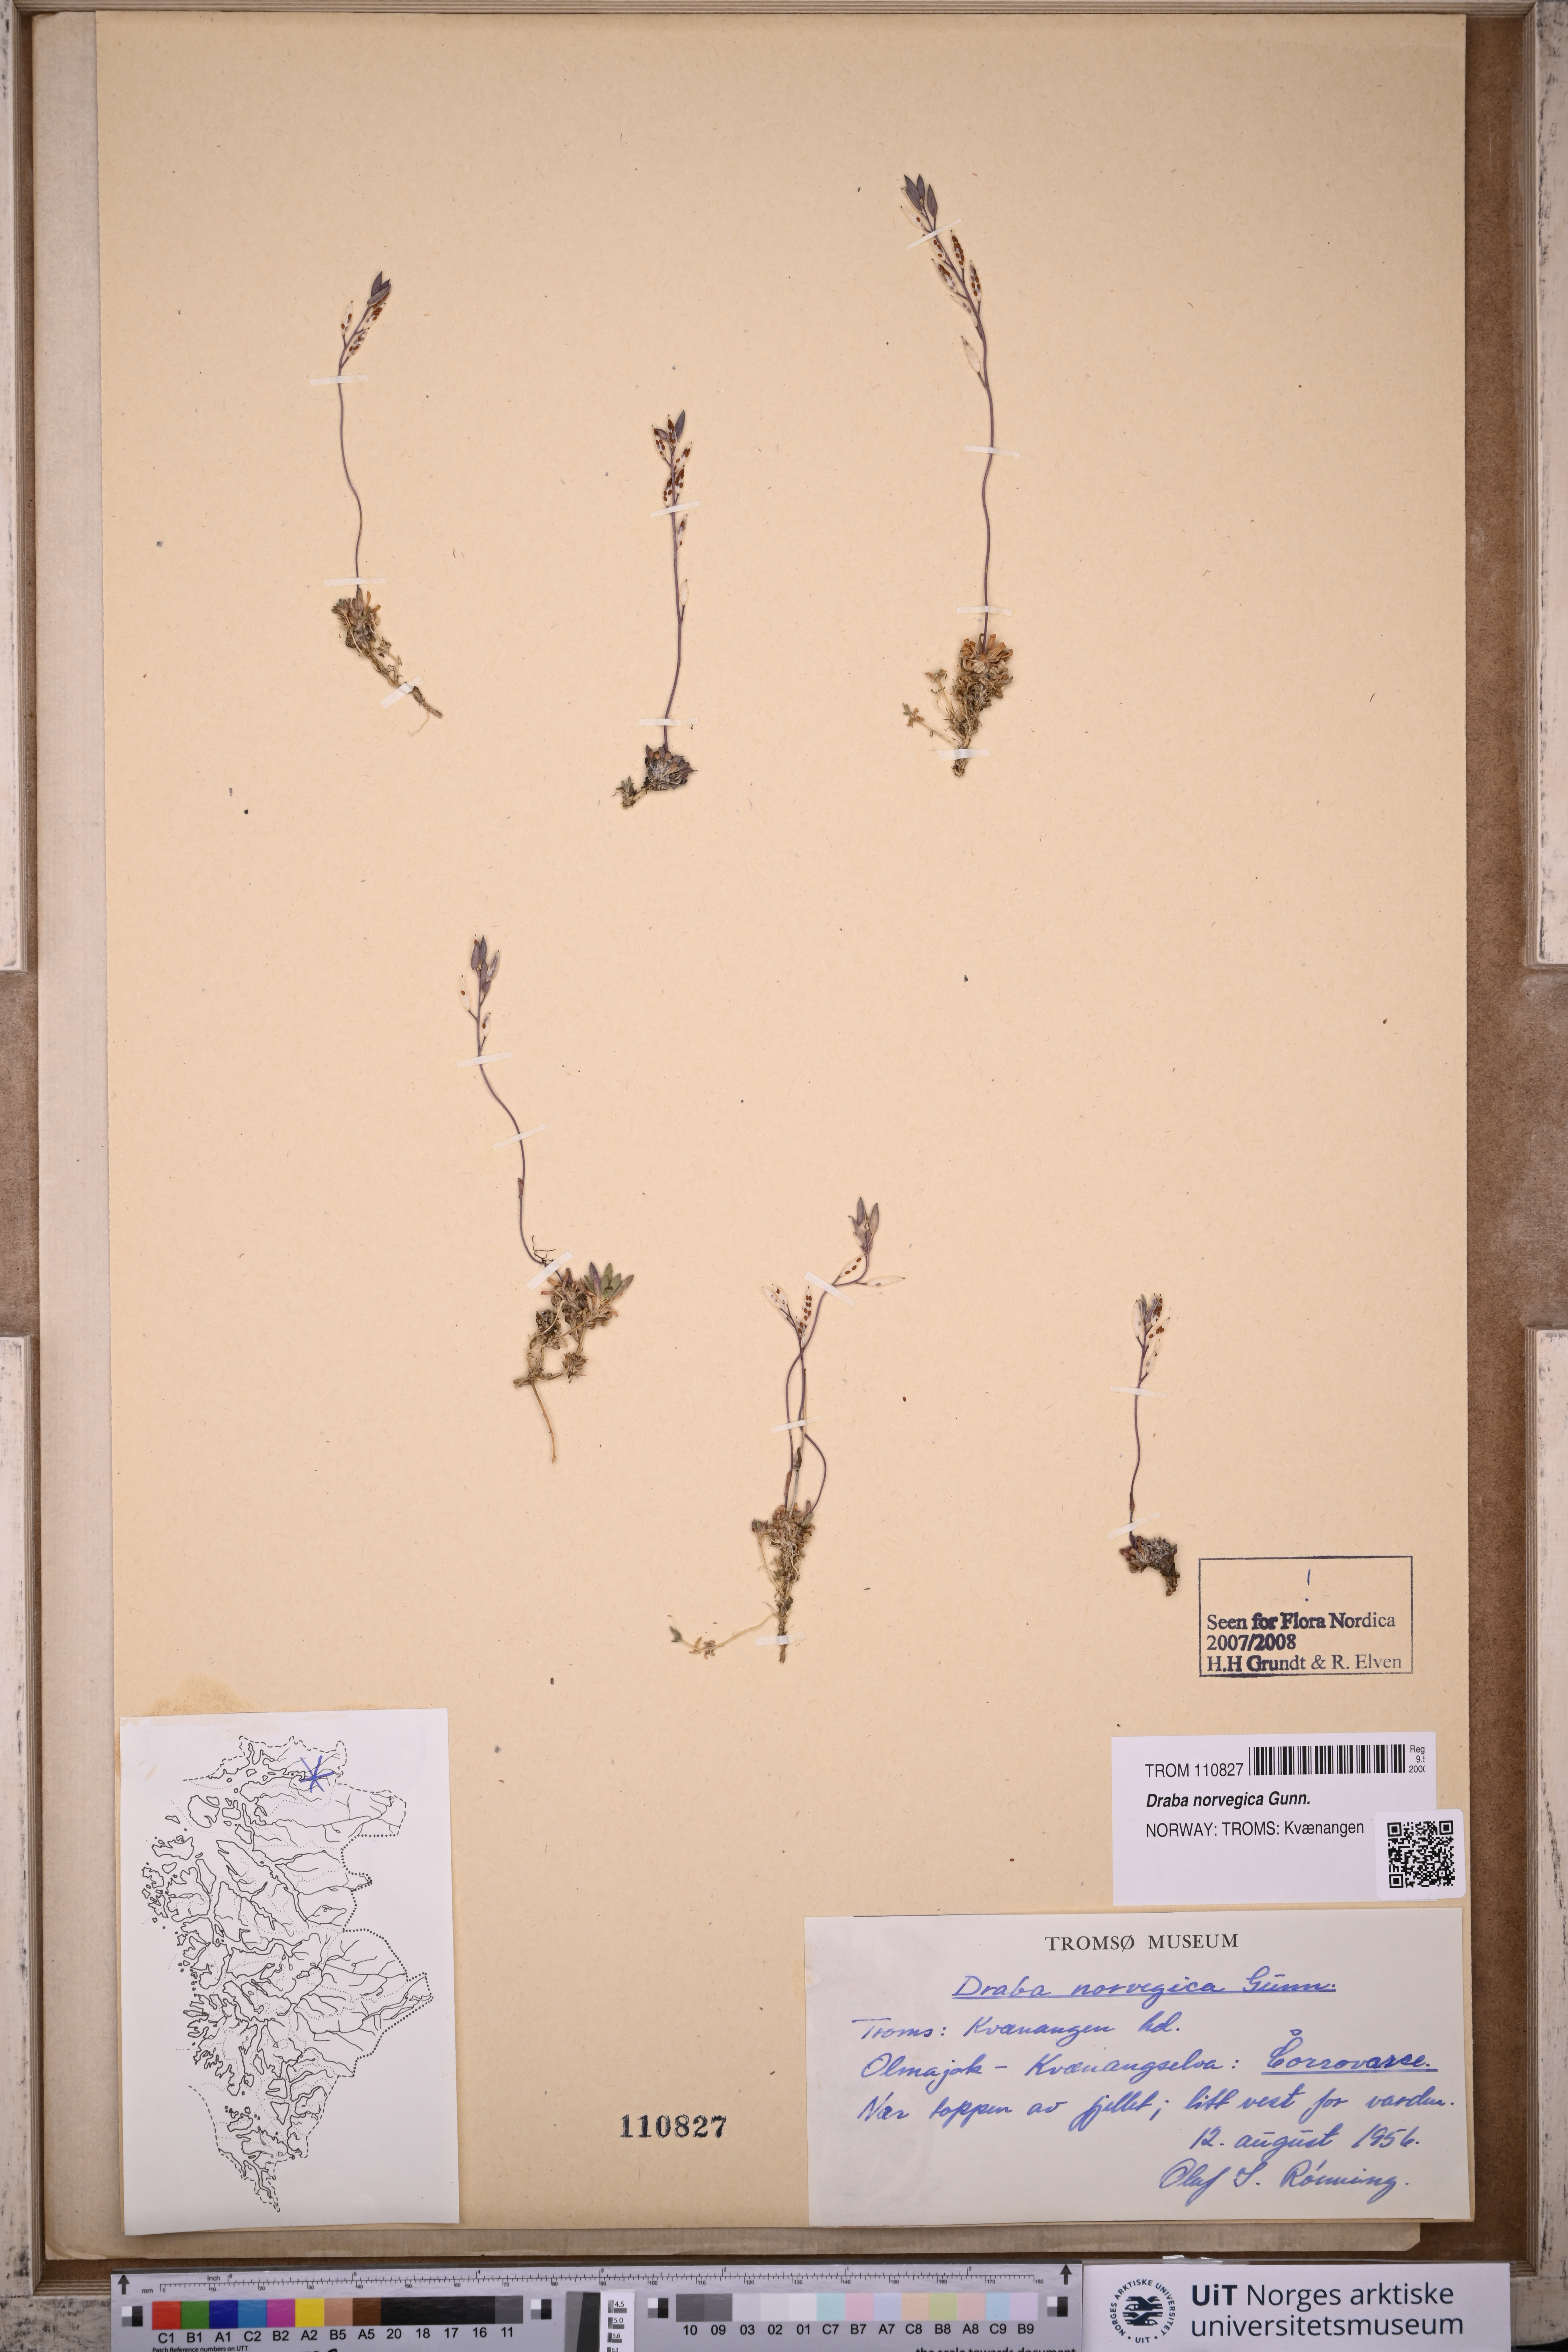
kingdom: Plantae
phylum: Tracheophyta
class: Magnoliopsida
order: Brassicales
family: Brassicaceae
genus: Draba
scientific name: Draba norvegica
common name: Rock whitlowgrass
